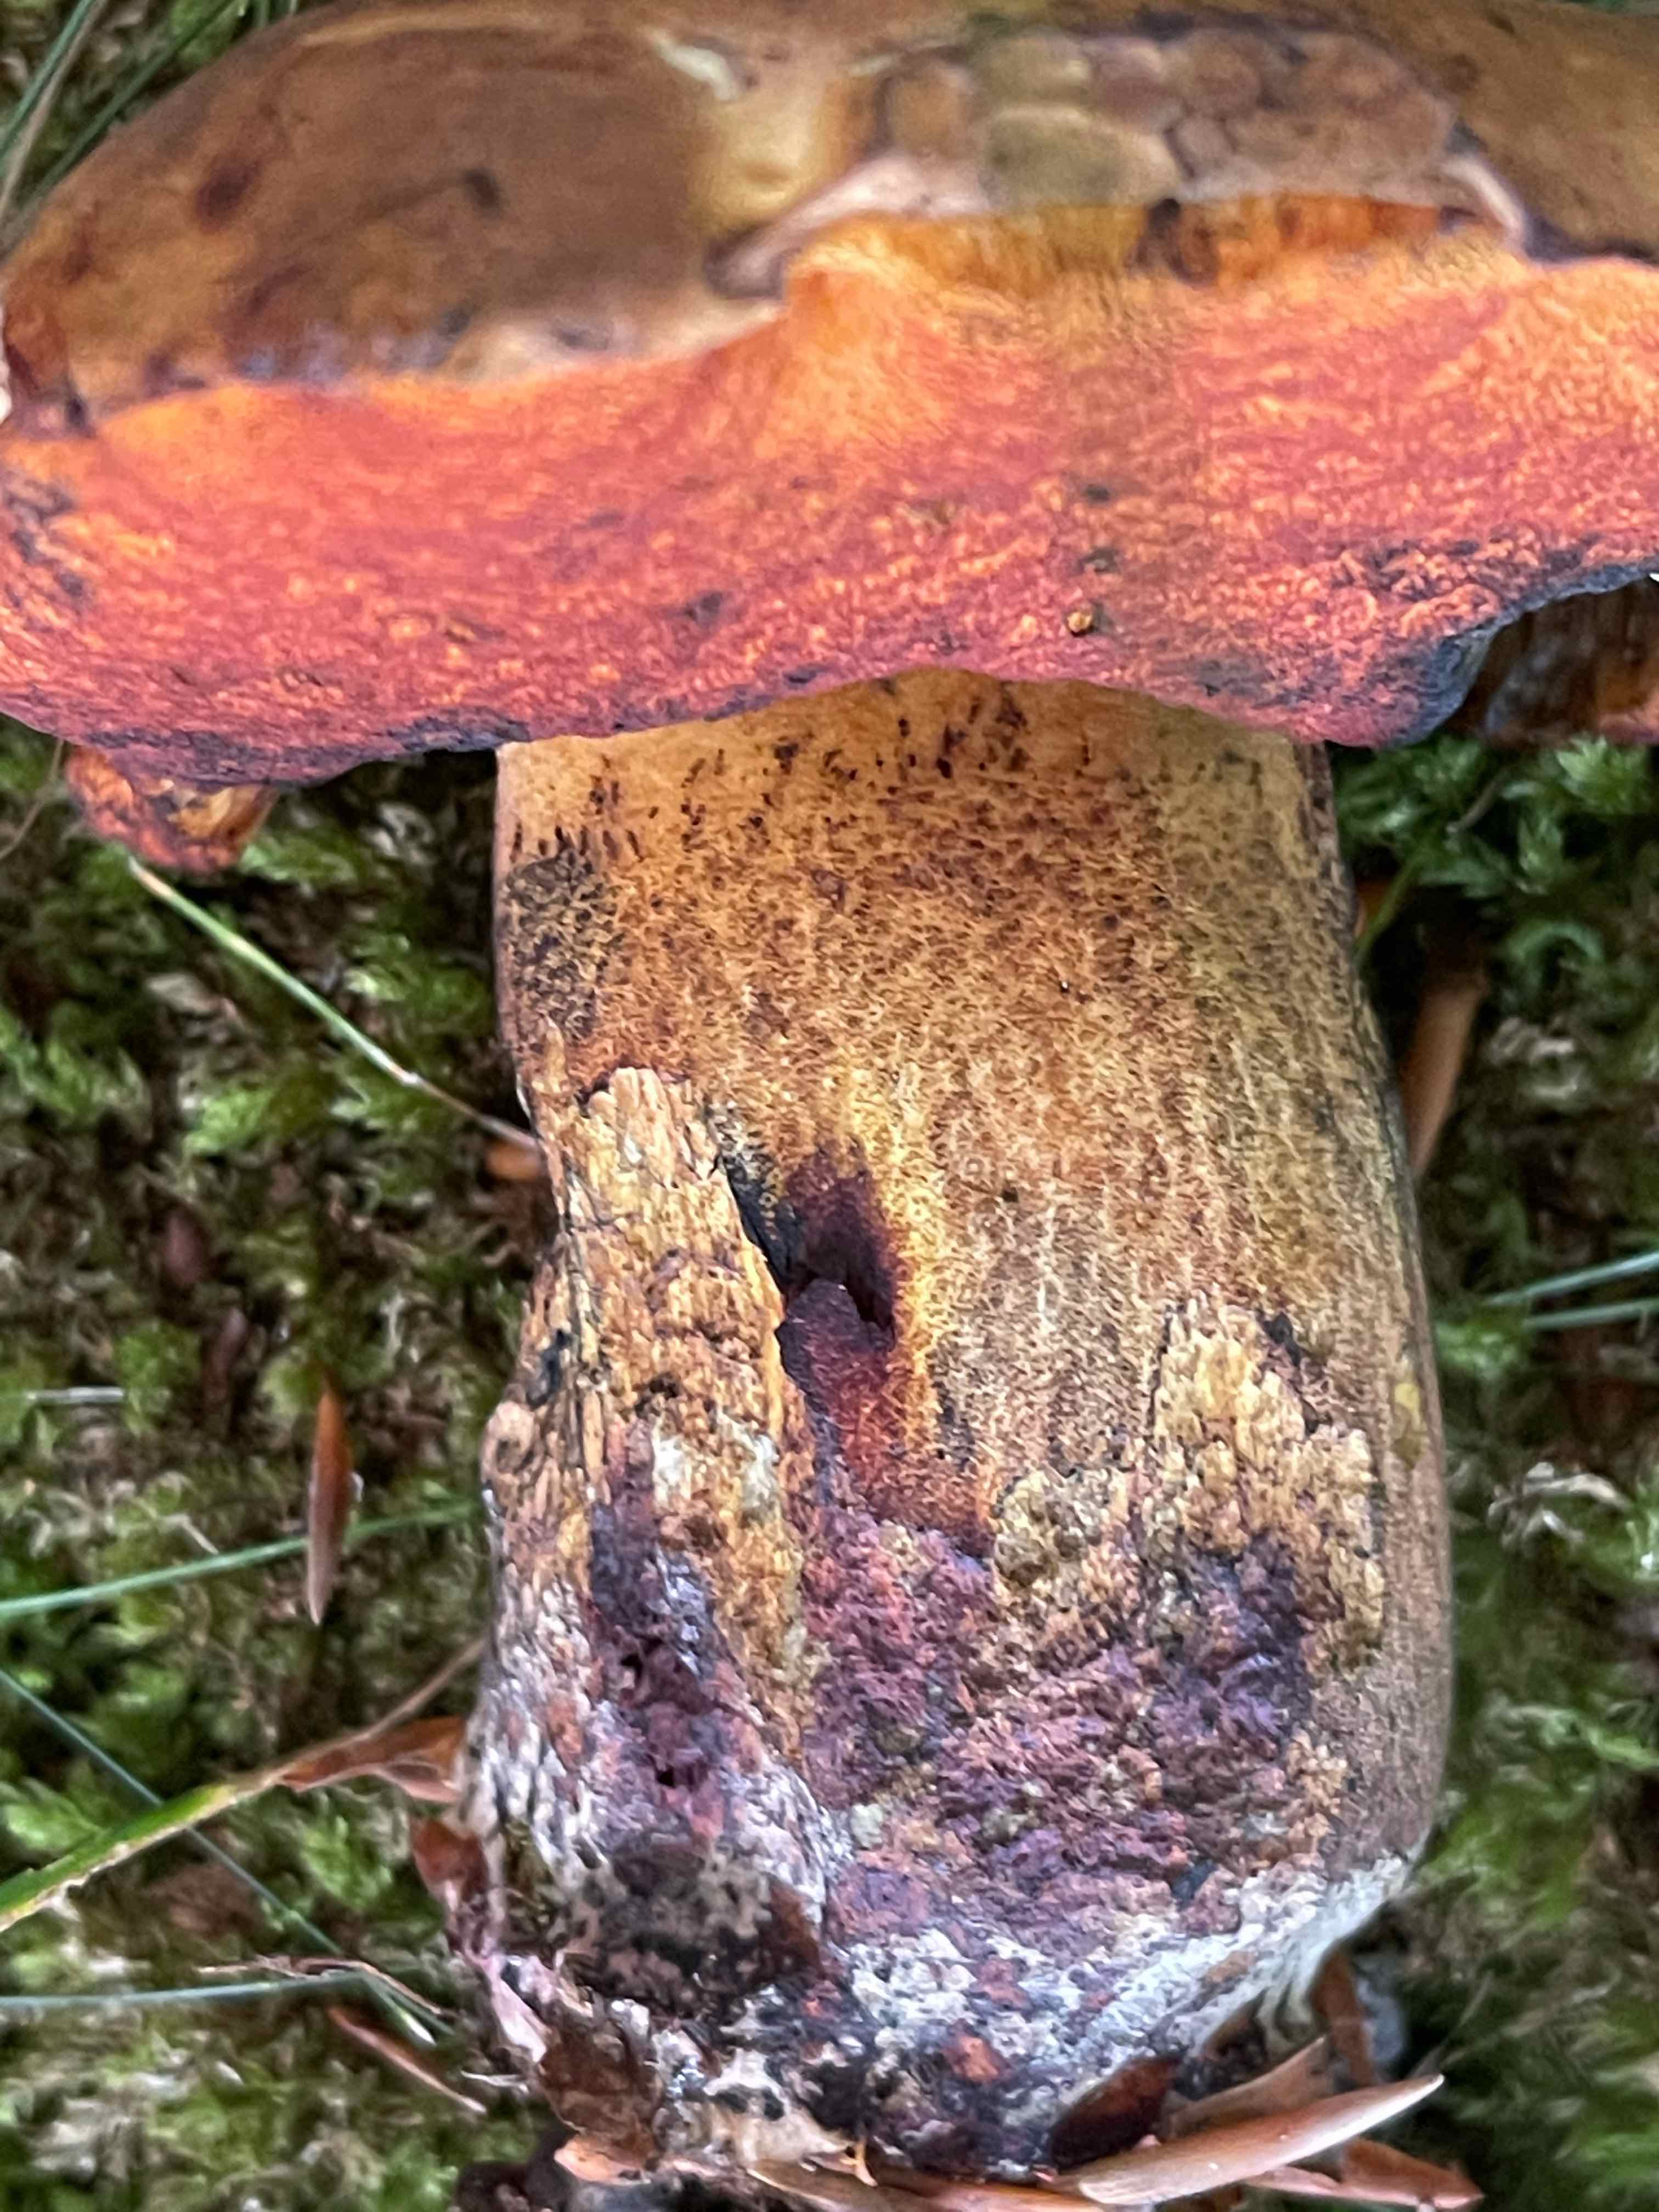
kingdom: Fungi
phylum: Basidiomycota
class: Agaricomycetes
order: Boletales
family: Boletaceae
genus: Suillellus
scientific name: Suillellus queletii
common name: glatstokket indigorørhat
